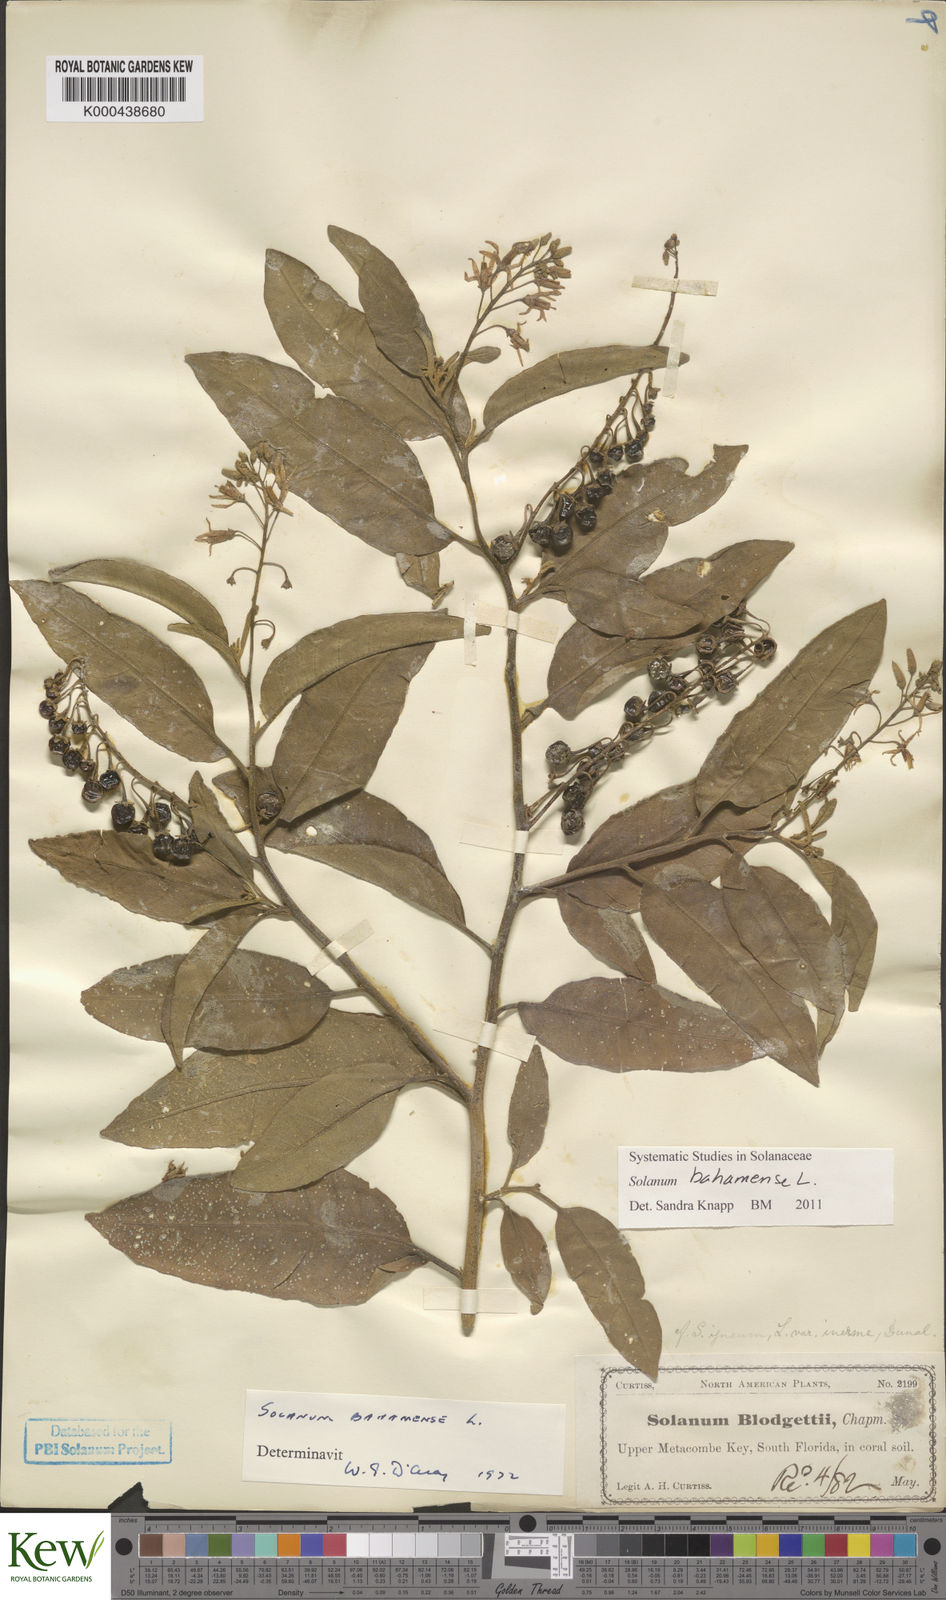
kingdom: Plantae
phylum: Tracheophyta
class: Magnoliopsida
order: Solanales
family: Solanaceae
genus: Solanum
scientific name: Solanum bahamense
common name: Canker-berry
